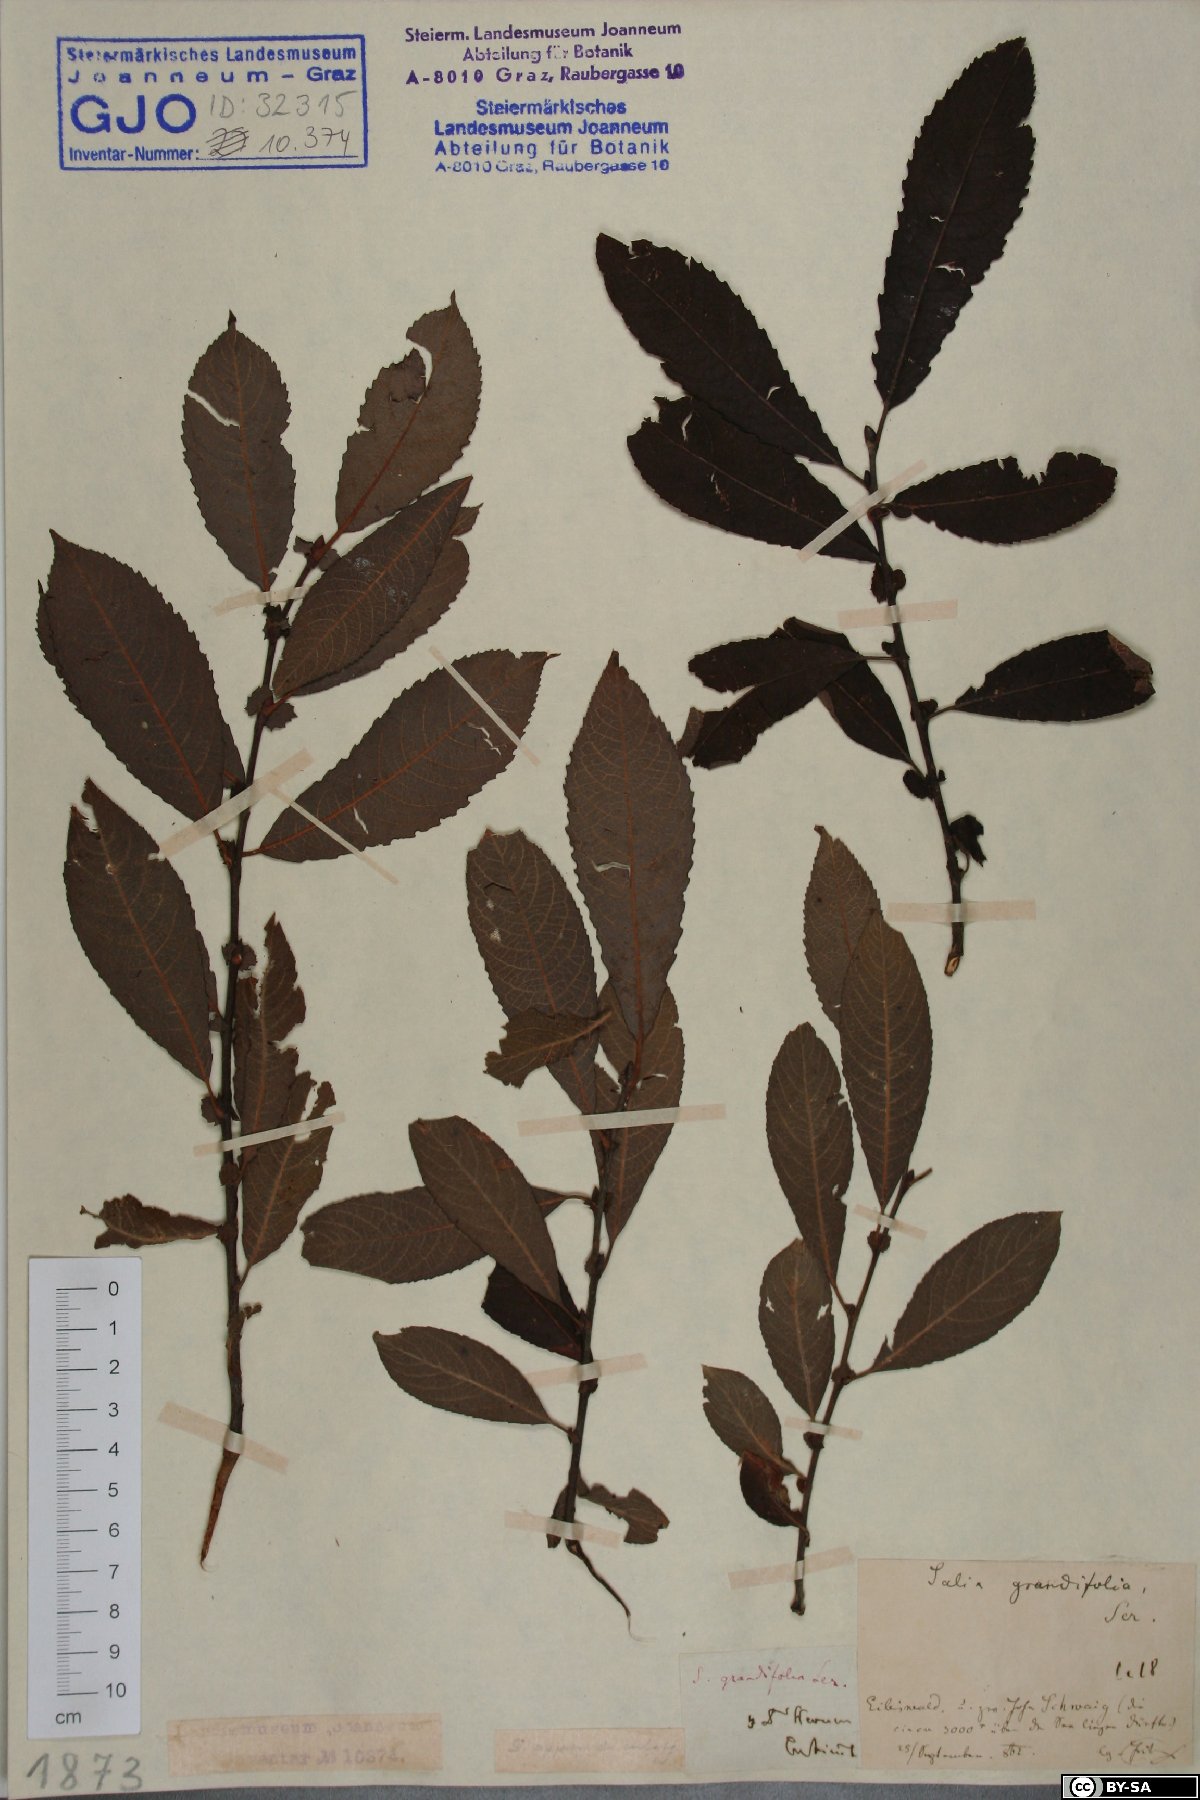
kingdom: Plantae
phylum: Tracheophyta
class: Magnoliopsida
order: Malpighiales
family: Salicaceae
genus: Salix
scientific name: Salix appendiculata
